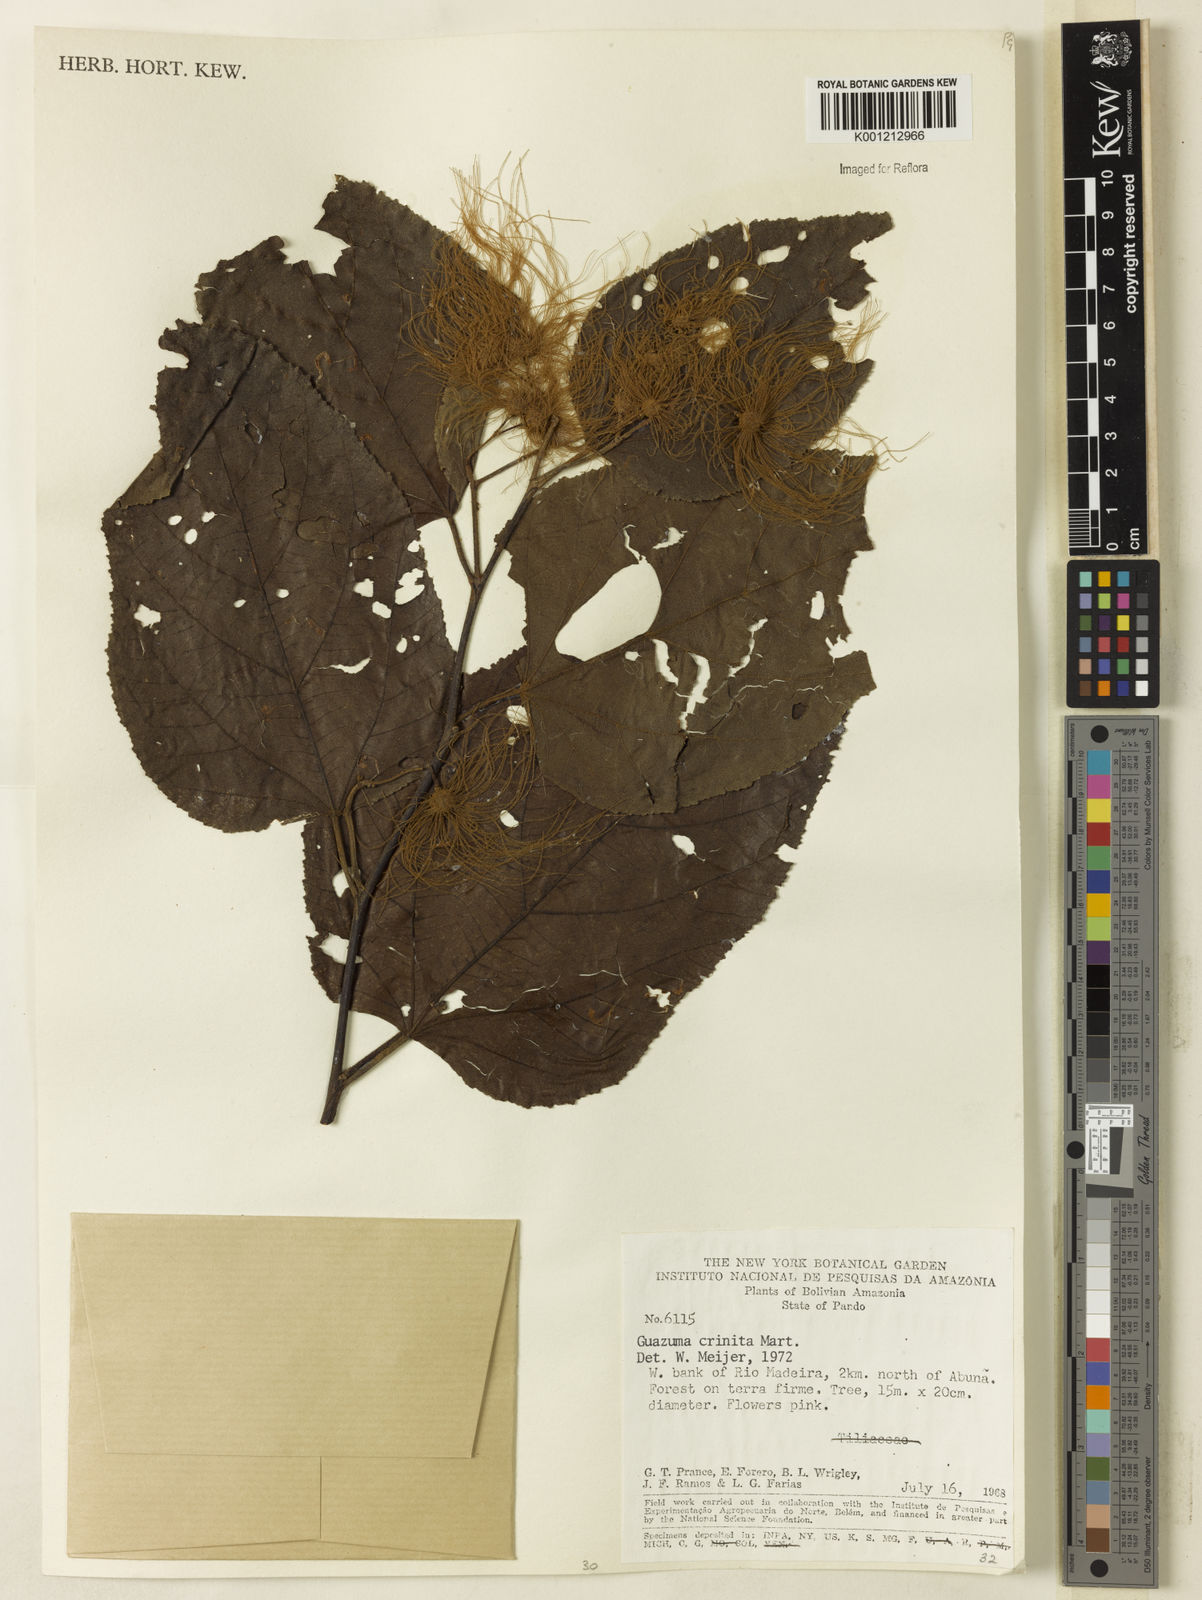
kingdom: Plantae
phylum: Tracheophyta
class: Magnoliopsida
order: Malvales
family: Malvaceae
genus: Guazuma
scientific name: Guazuma crinita
